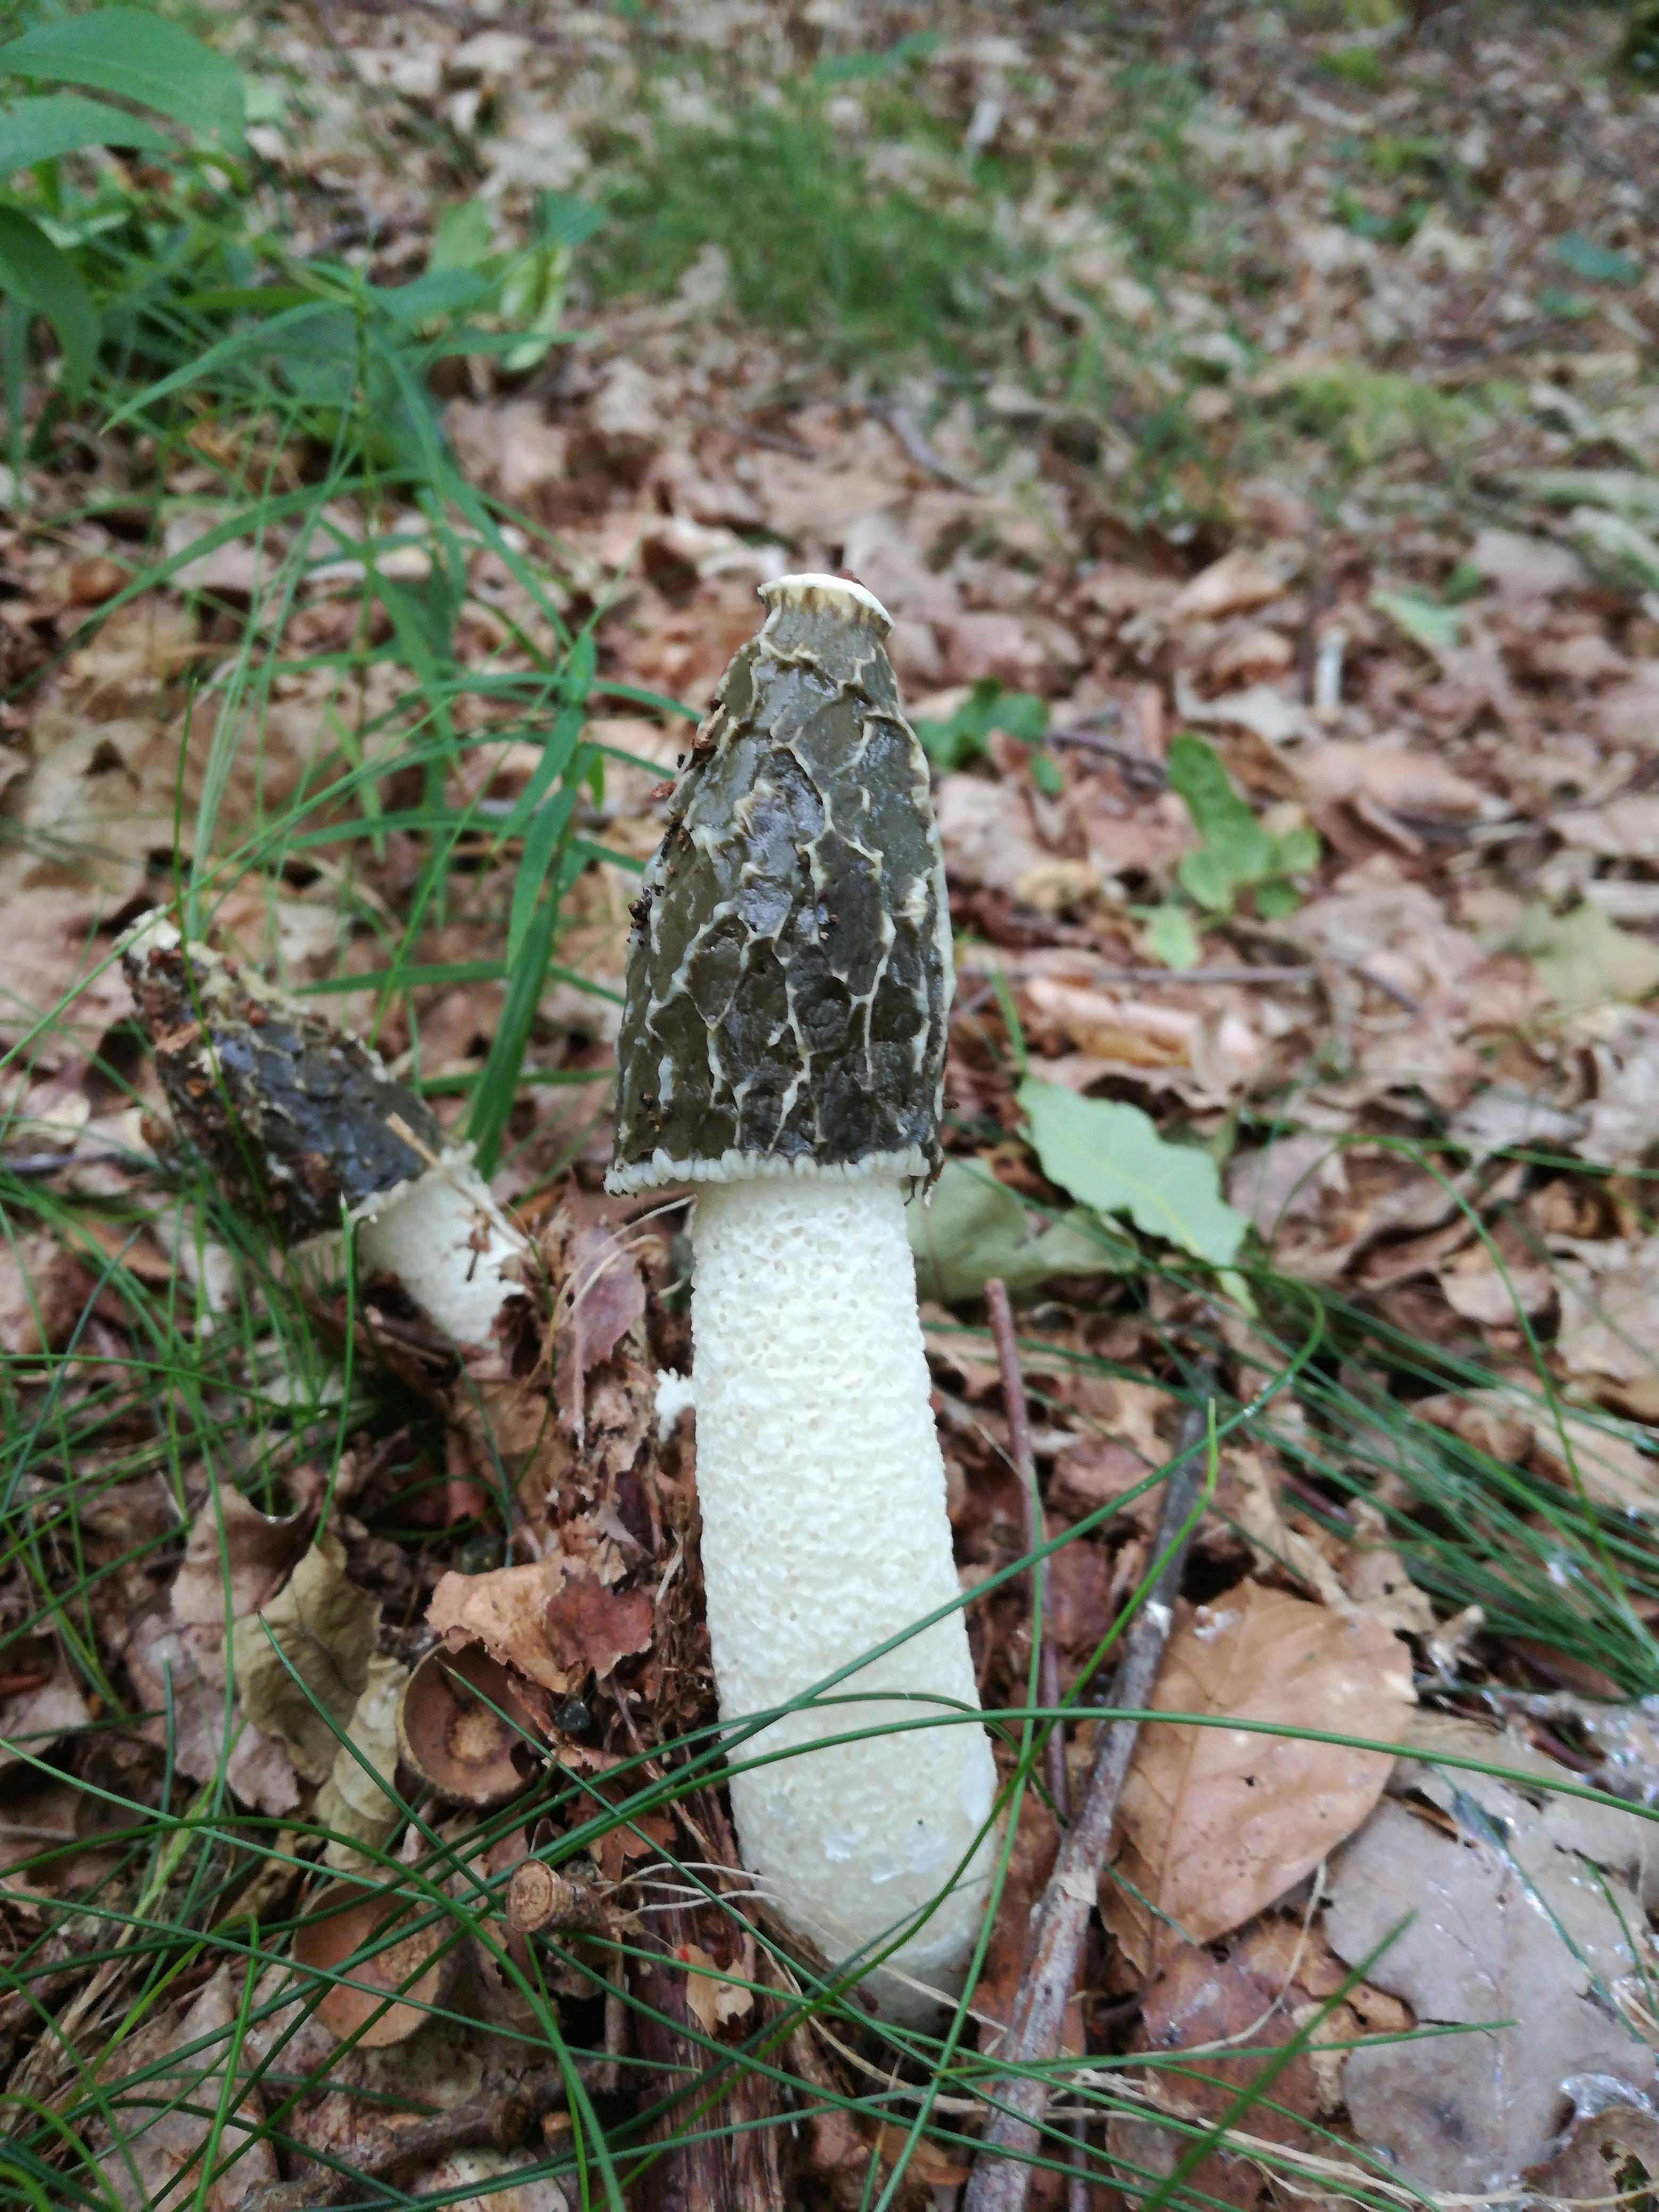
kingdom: Fungi
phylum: Basidiomycota
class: Agaricomycetes
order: Phallales
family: Phallaceae
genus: Phallus
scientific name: Phallus impudicus
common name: almindelig stinksvamp
